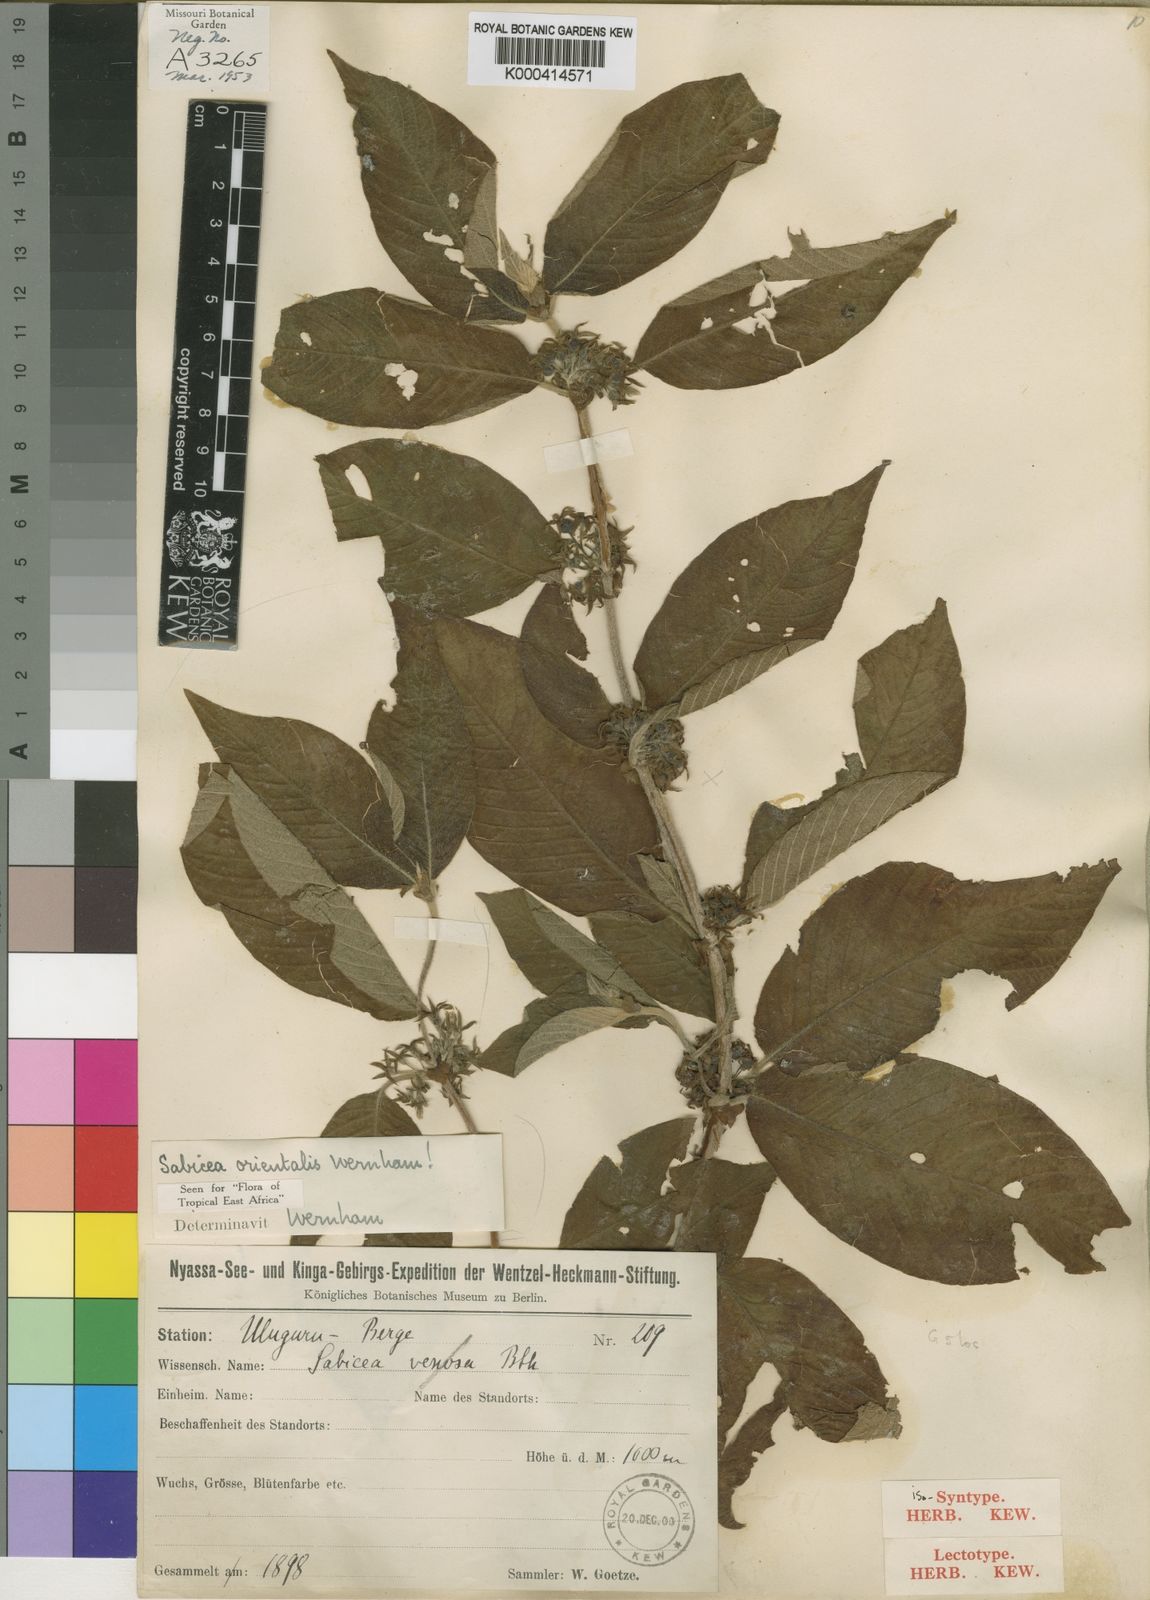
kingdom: Plantae
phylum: Tracheophyta
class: Magnoliopsida
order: Gentianales
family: Rubiaceae
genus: Sabicea
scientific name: Sabicea orientalis
